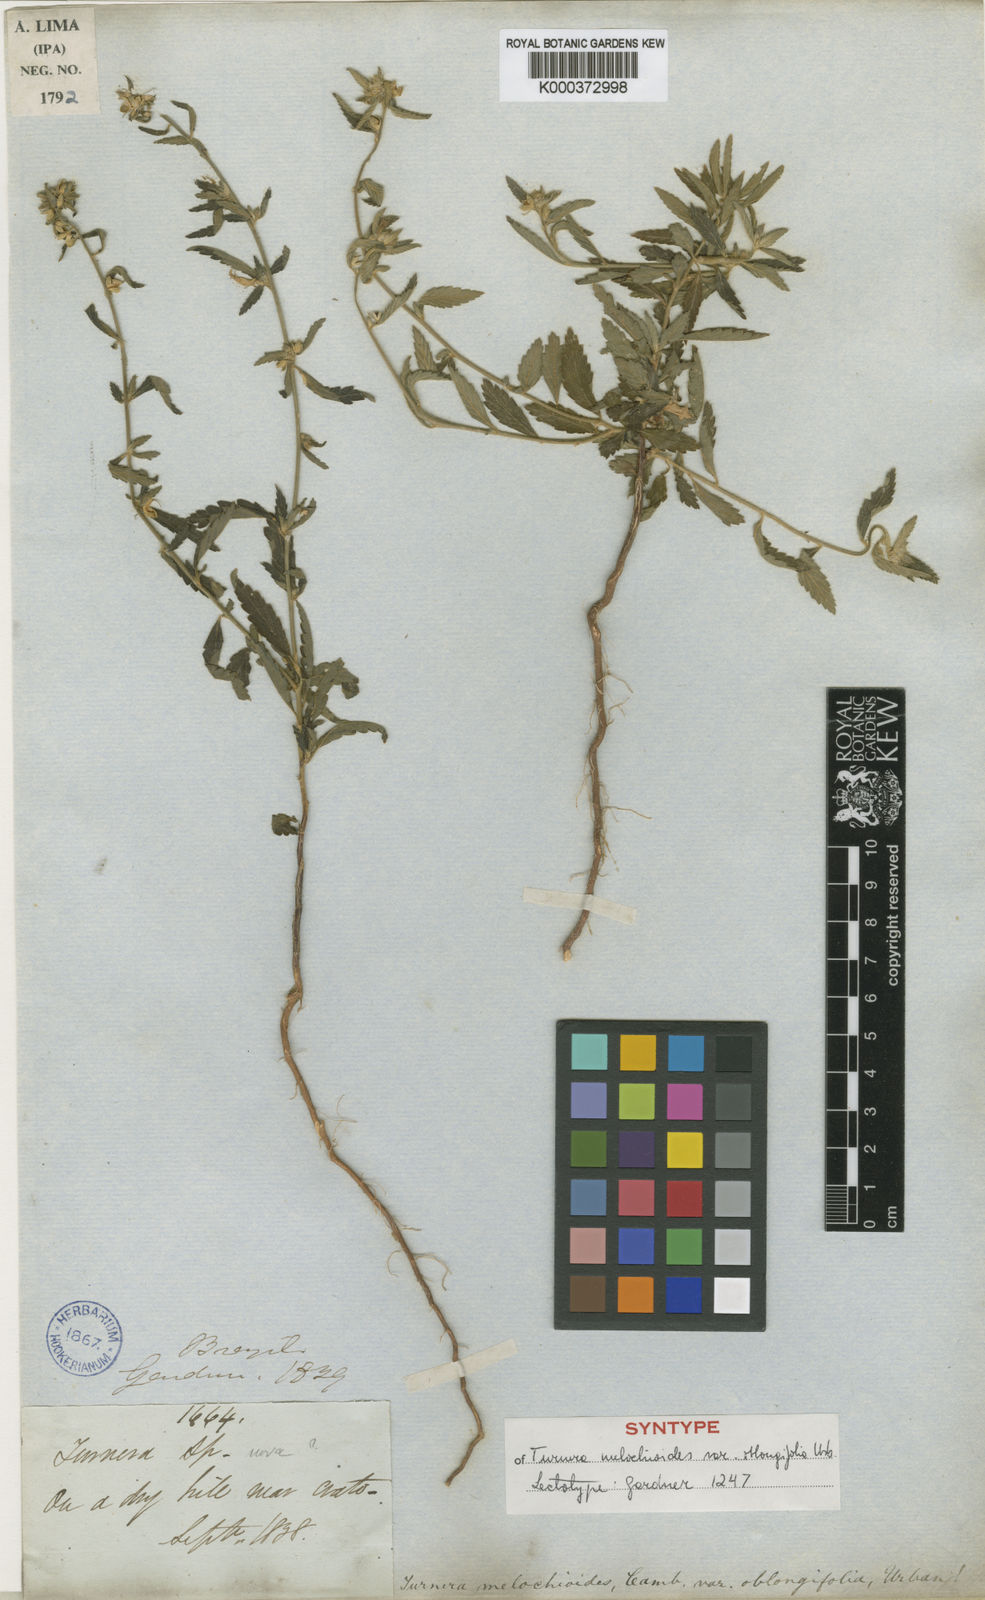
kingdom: Plantae
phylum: Tracheophyta
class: Magnoliopsida
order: Malpighiales
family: Turneraceae
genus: Turnera
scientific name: Turnera arenaria
